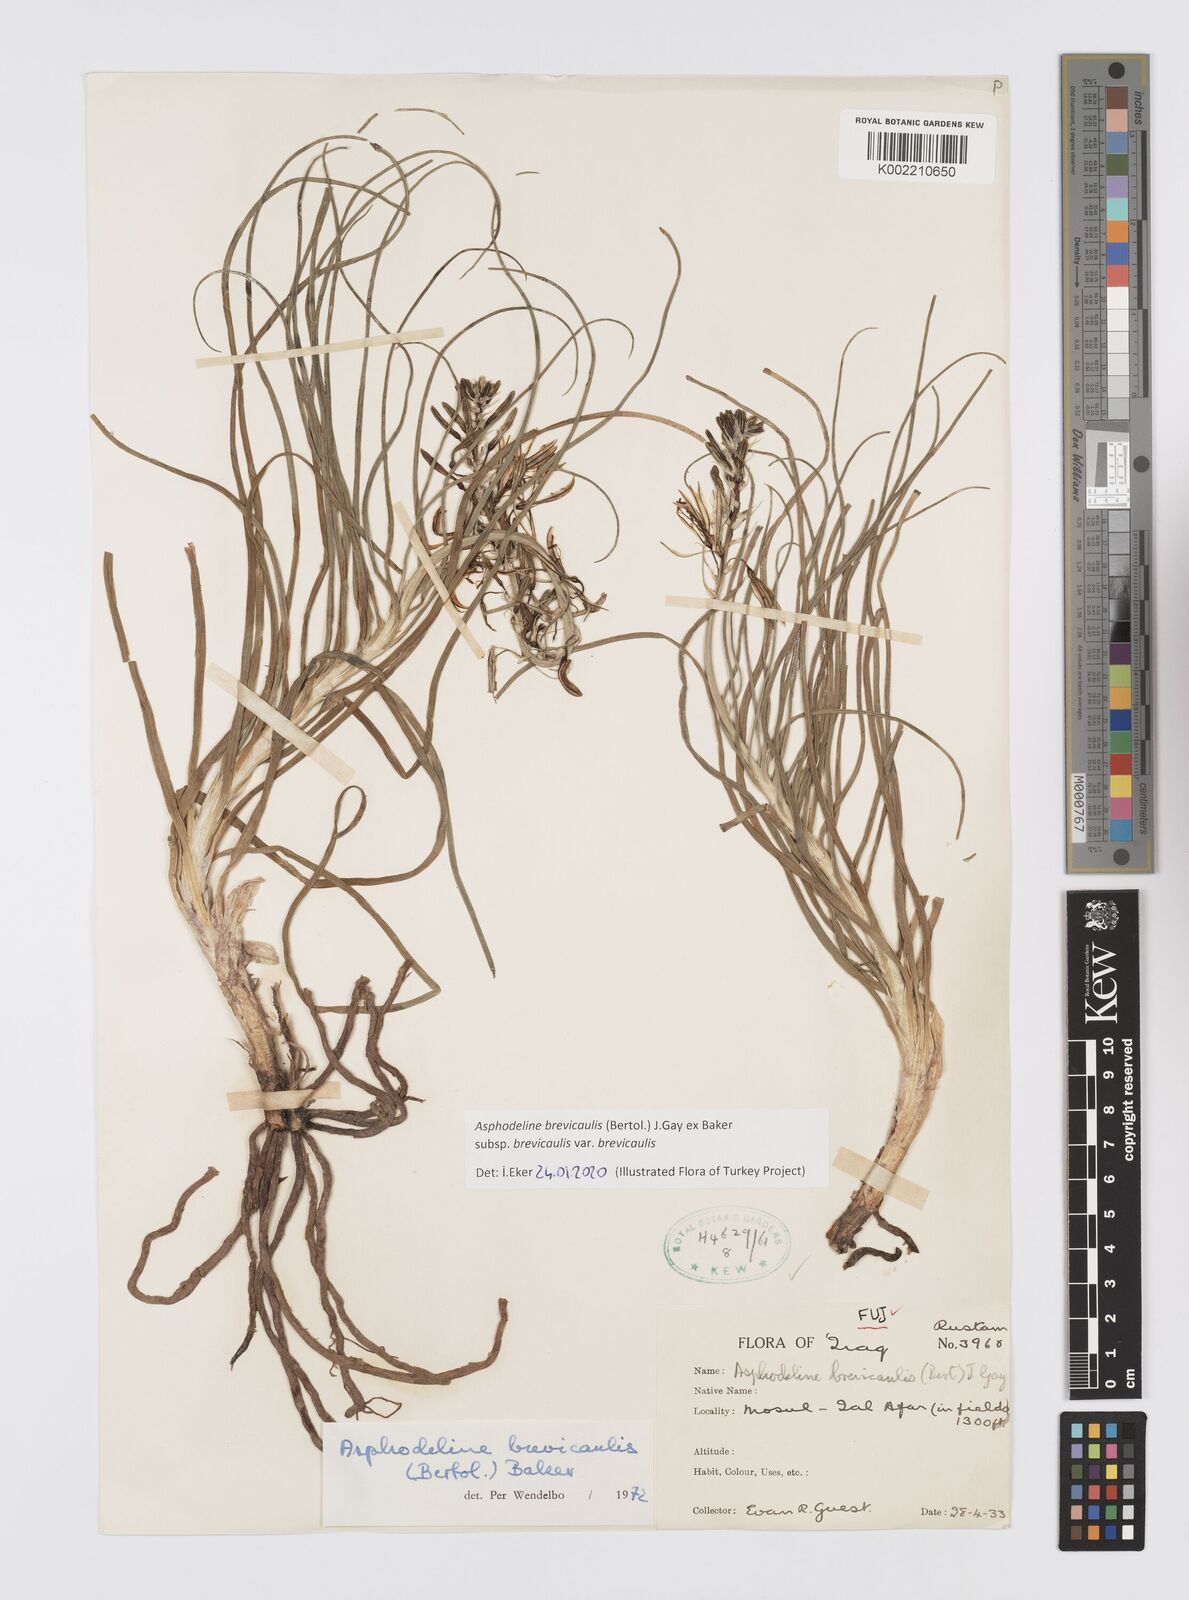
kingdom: Plantae
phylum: Tracheophyta
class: Liliopsida
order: Asparagales
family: Asphodelaceae
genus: Asphodeline
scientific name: Asphodeline brevicaulis
